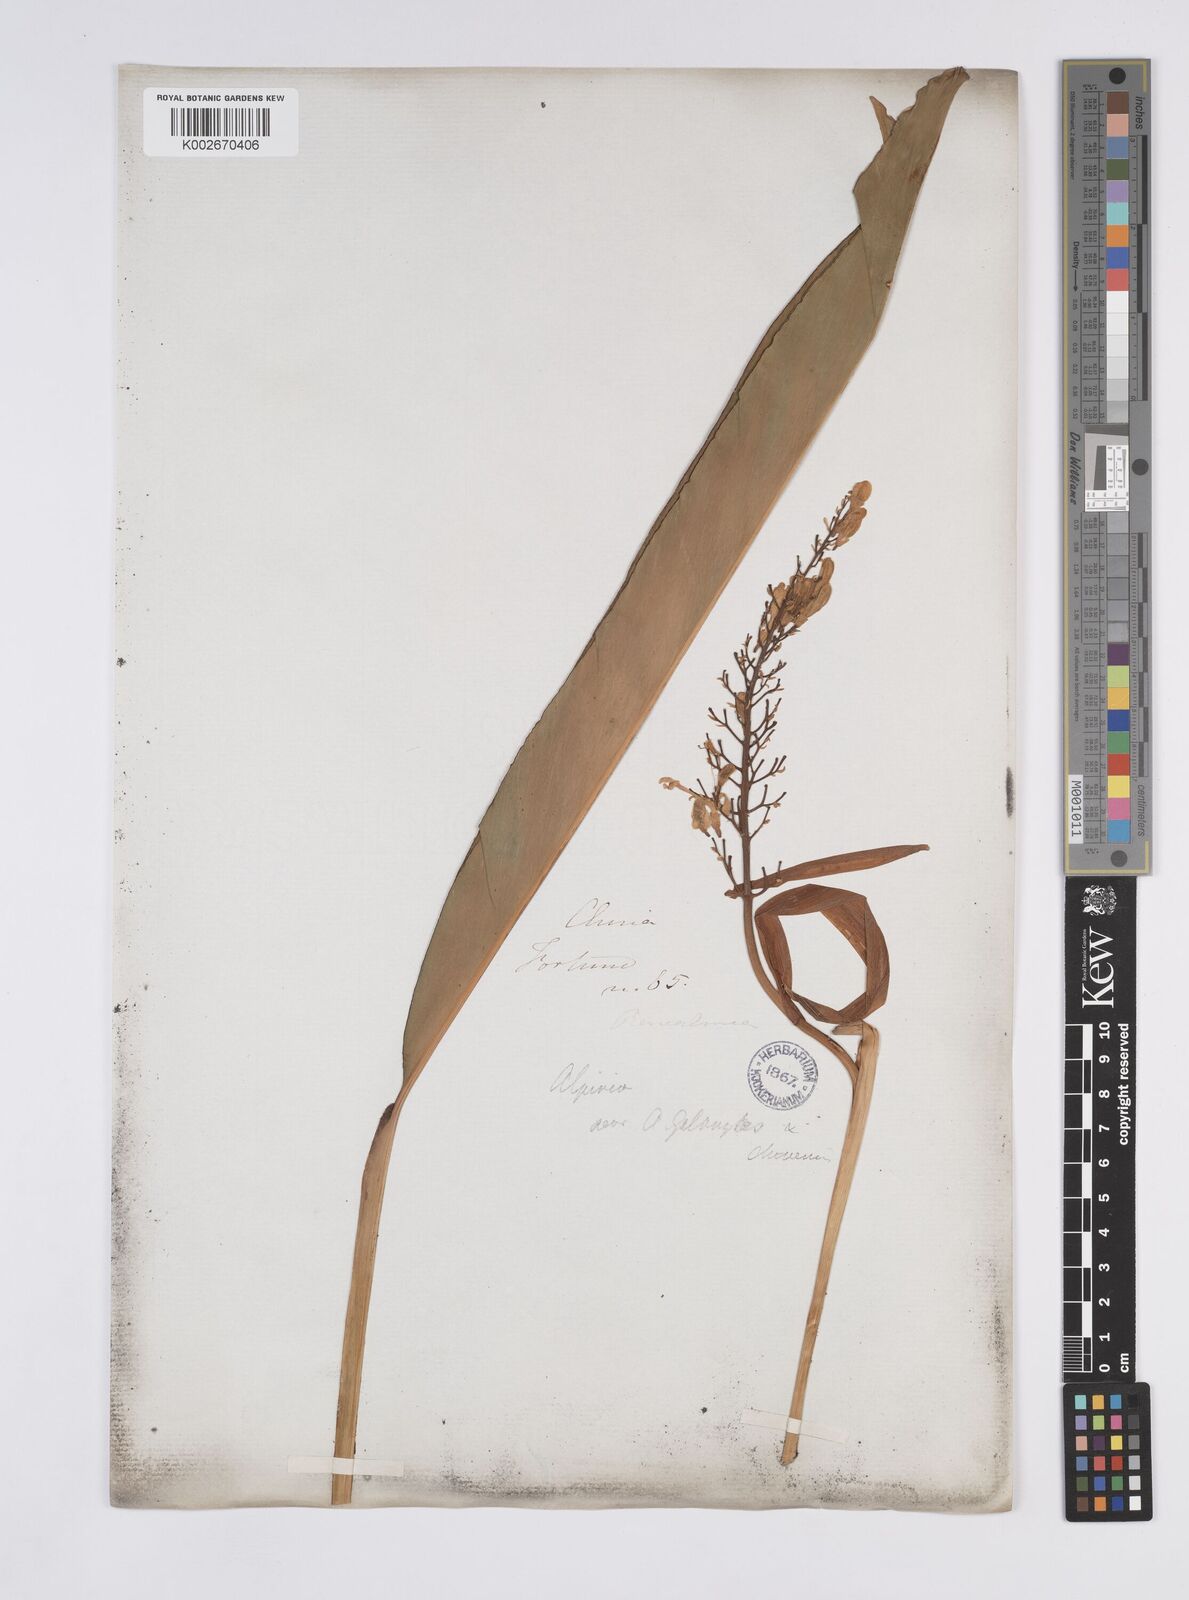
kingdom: Plantae
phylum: Tracheophyta
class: Liliopsida
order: Zingiberales
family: Zingiberaceae
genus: Alpinia
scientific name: Alpinia galanga
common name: Siamese-ginger
